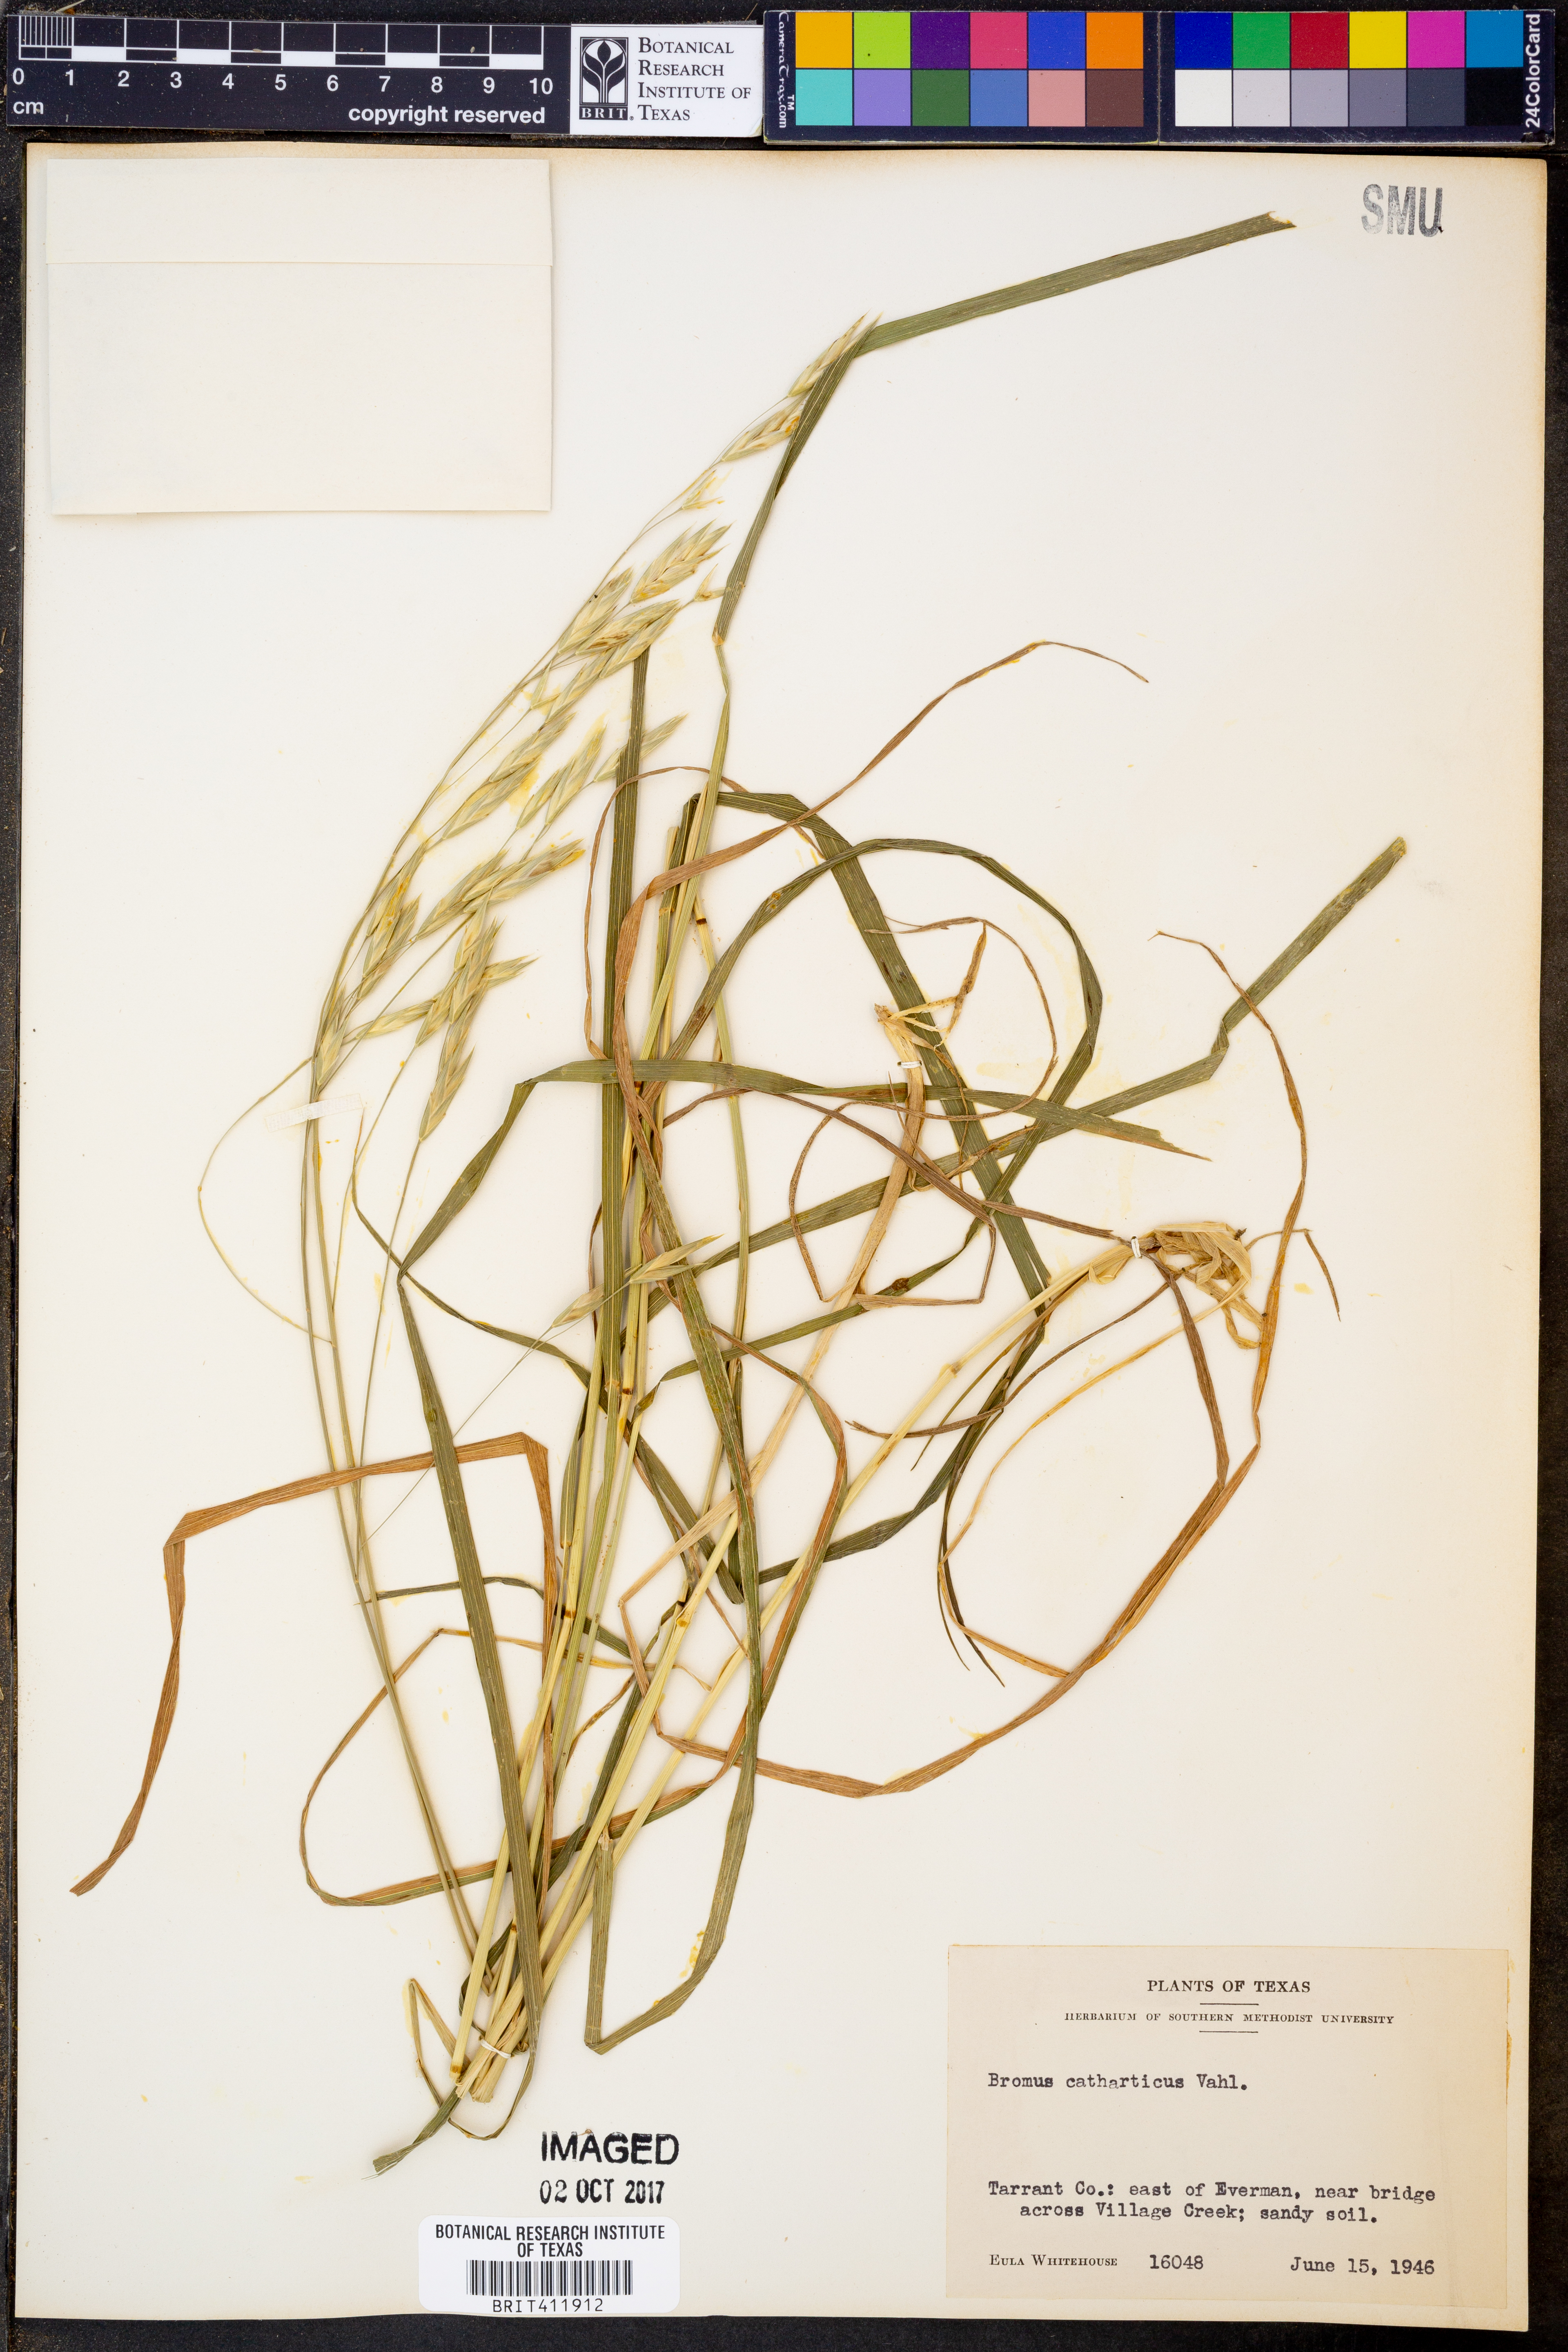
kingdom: Plantae
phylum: Tracheophyta
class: Liliopsida
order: Poales
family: Poaceae
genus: Bromus
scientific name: Bromus catharticus
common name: Rescuegrass
